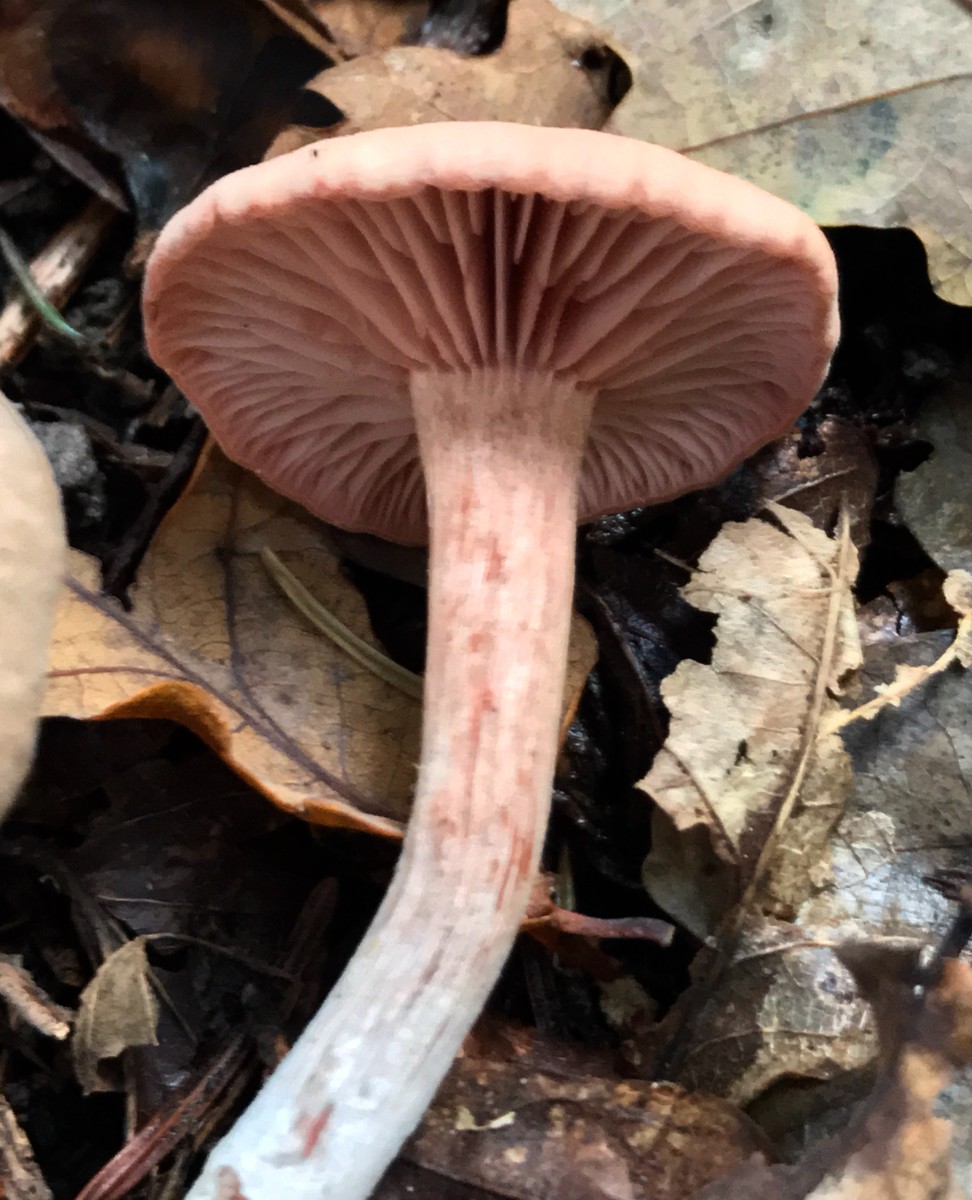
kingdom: Fungi
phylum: Basidiomycota
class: Agaricomycetes
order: Agaricales
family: Hydnangiaceae
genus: Laccaria
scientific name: Laccaria
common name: ametysthat
